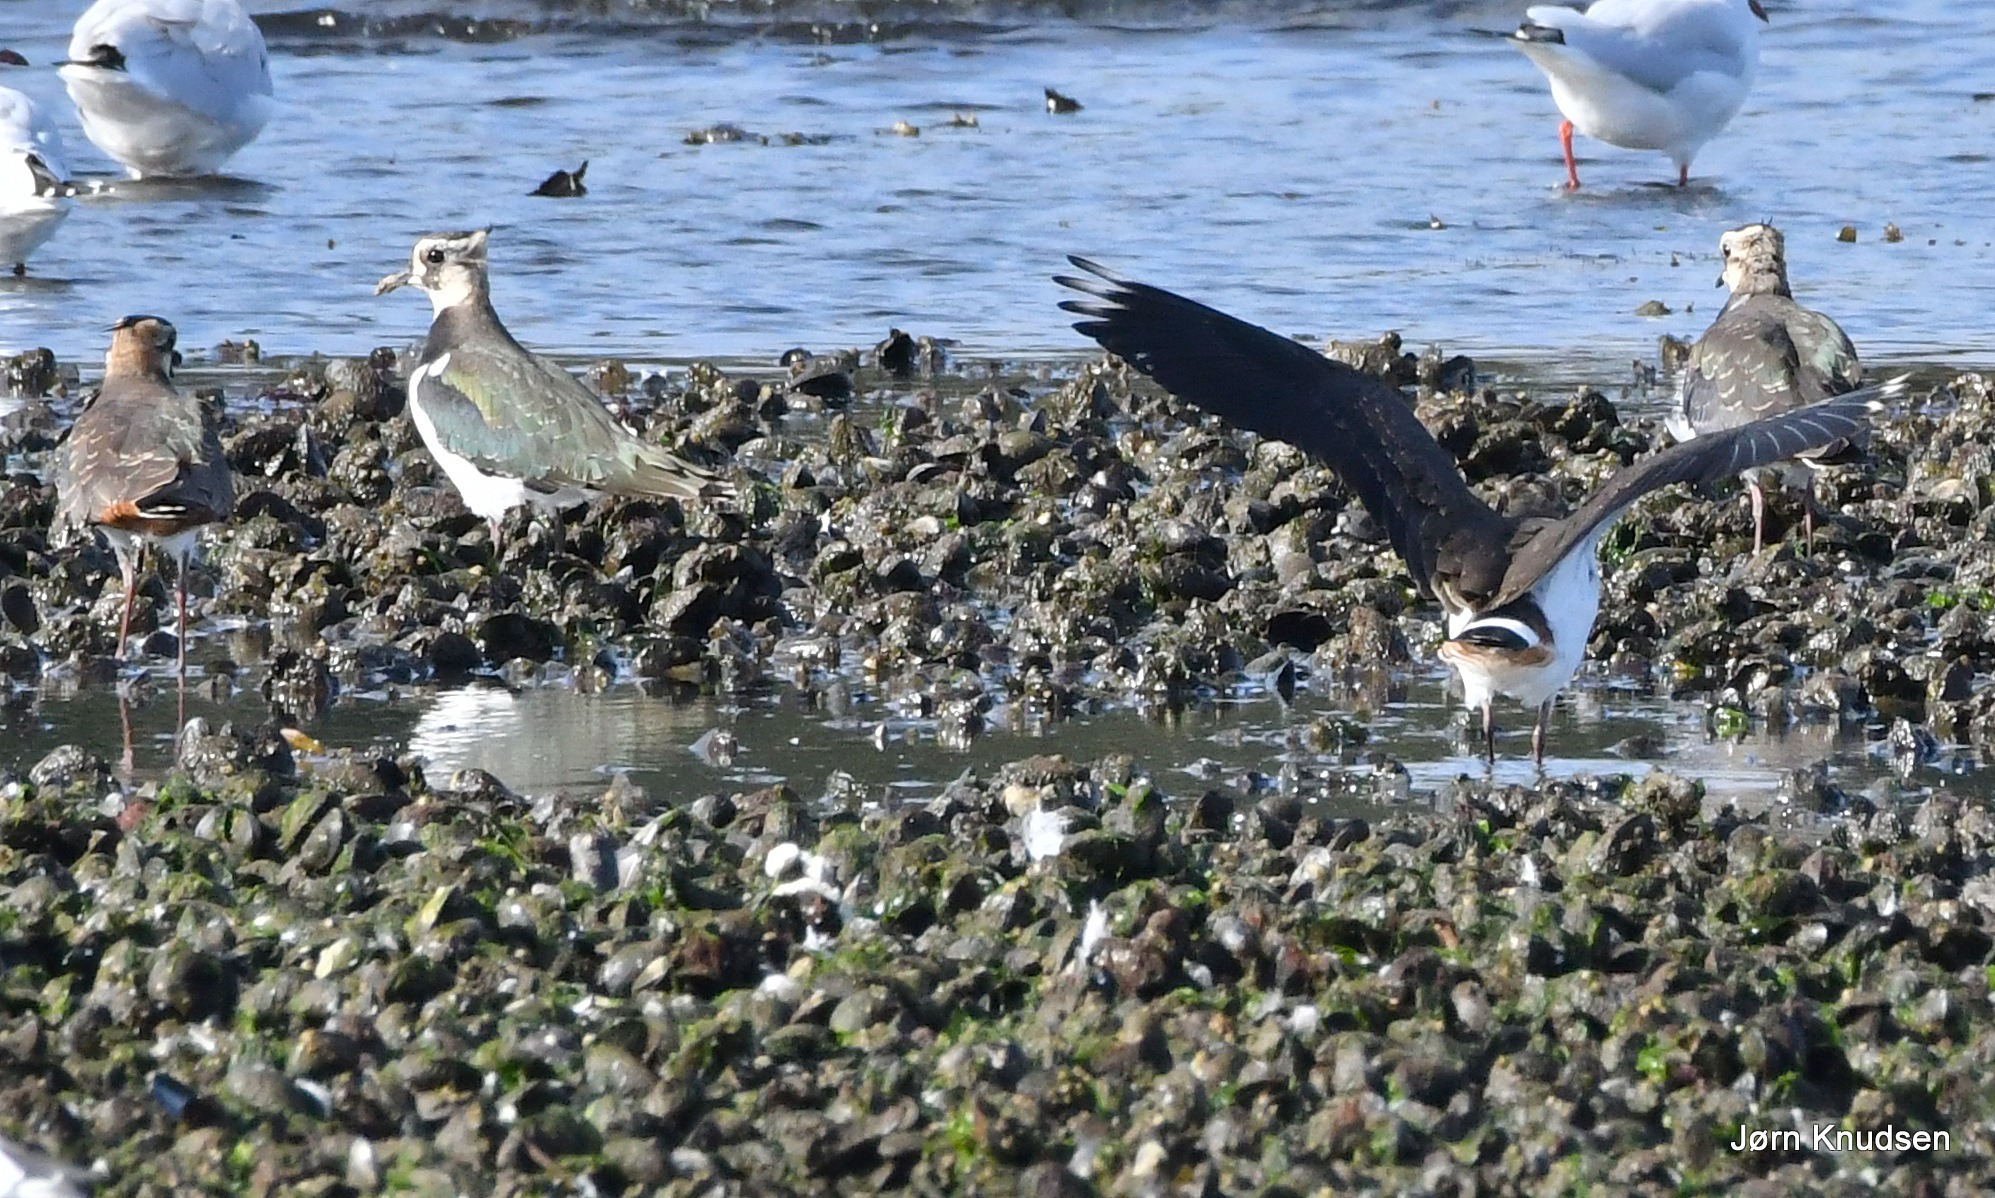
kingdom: Animalia
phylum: Chordata
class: Aves
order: Charadriiformes
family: Charadriidae
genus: Vanellus
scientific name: Vanellus vanellus
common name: Vibe
